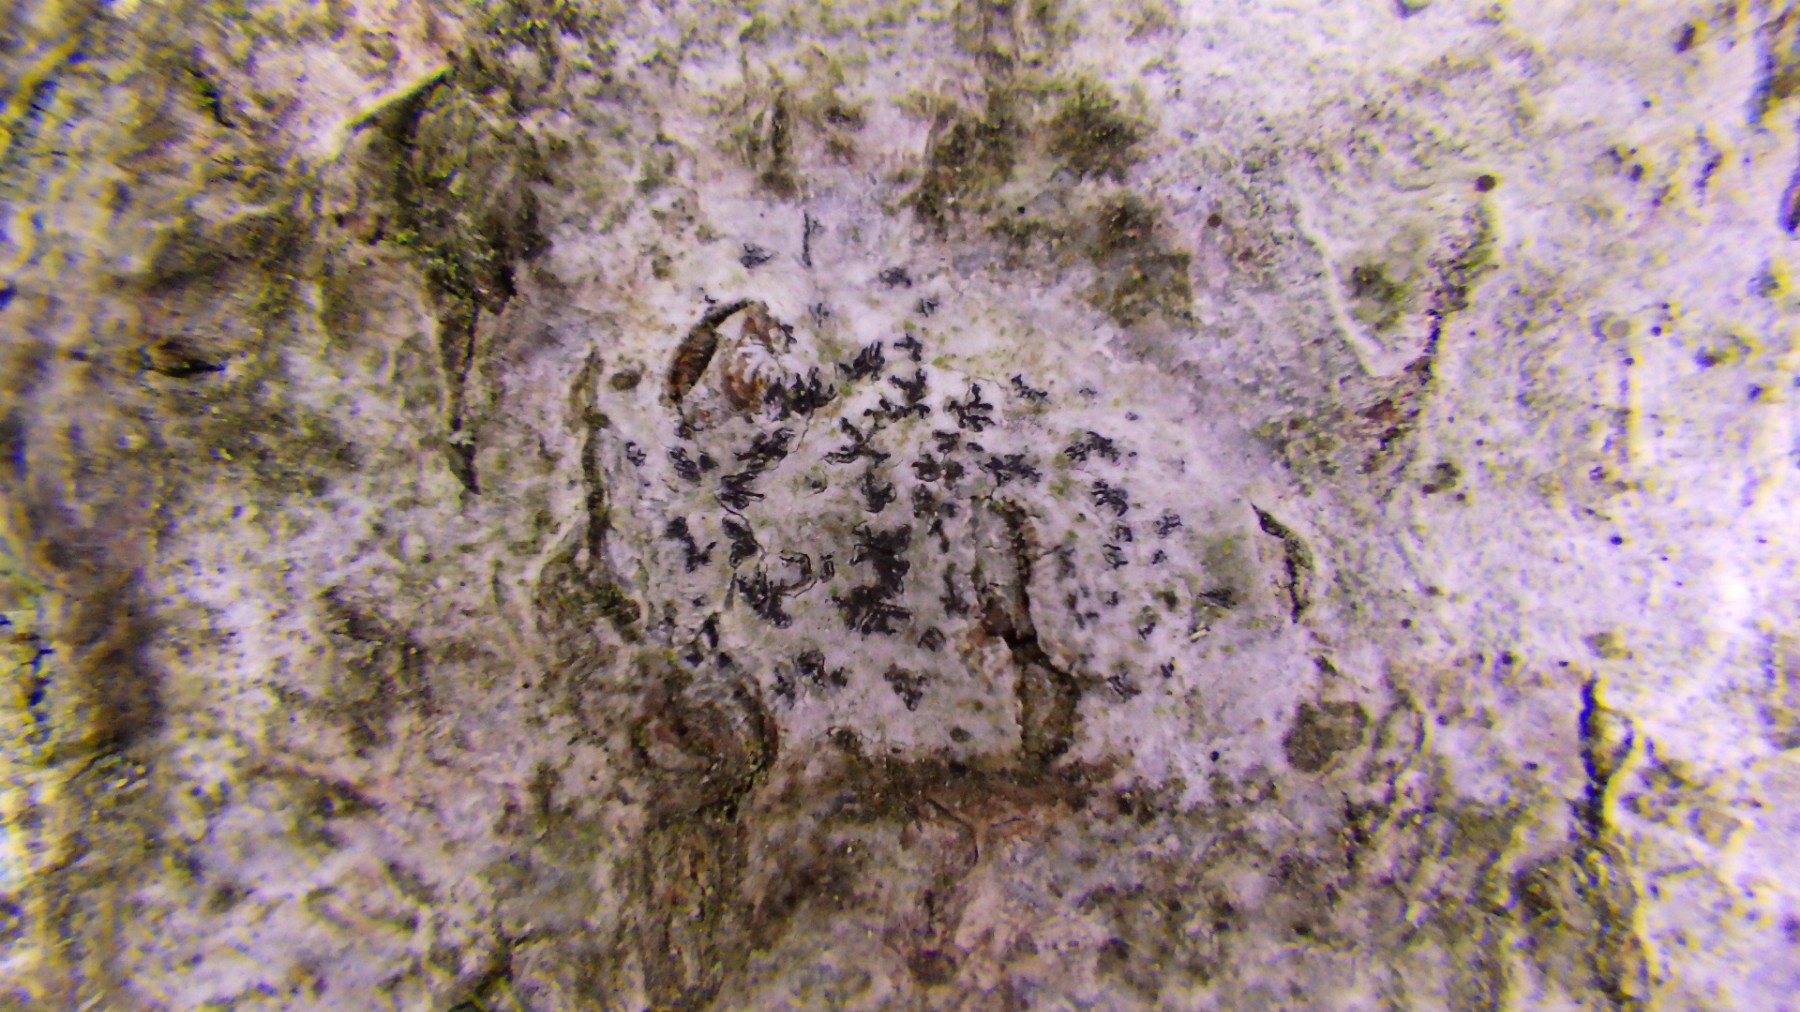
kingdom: Fungi
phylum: Ascomycota
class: Arthoniomycetes
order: Arthoniales
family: Arthoniaceae
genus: Arthonia
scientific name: Arthonia radiata
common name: stjerne-pletlav
